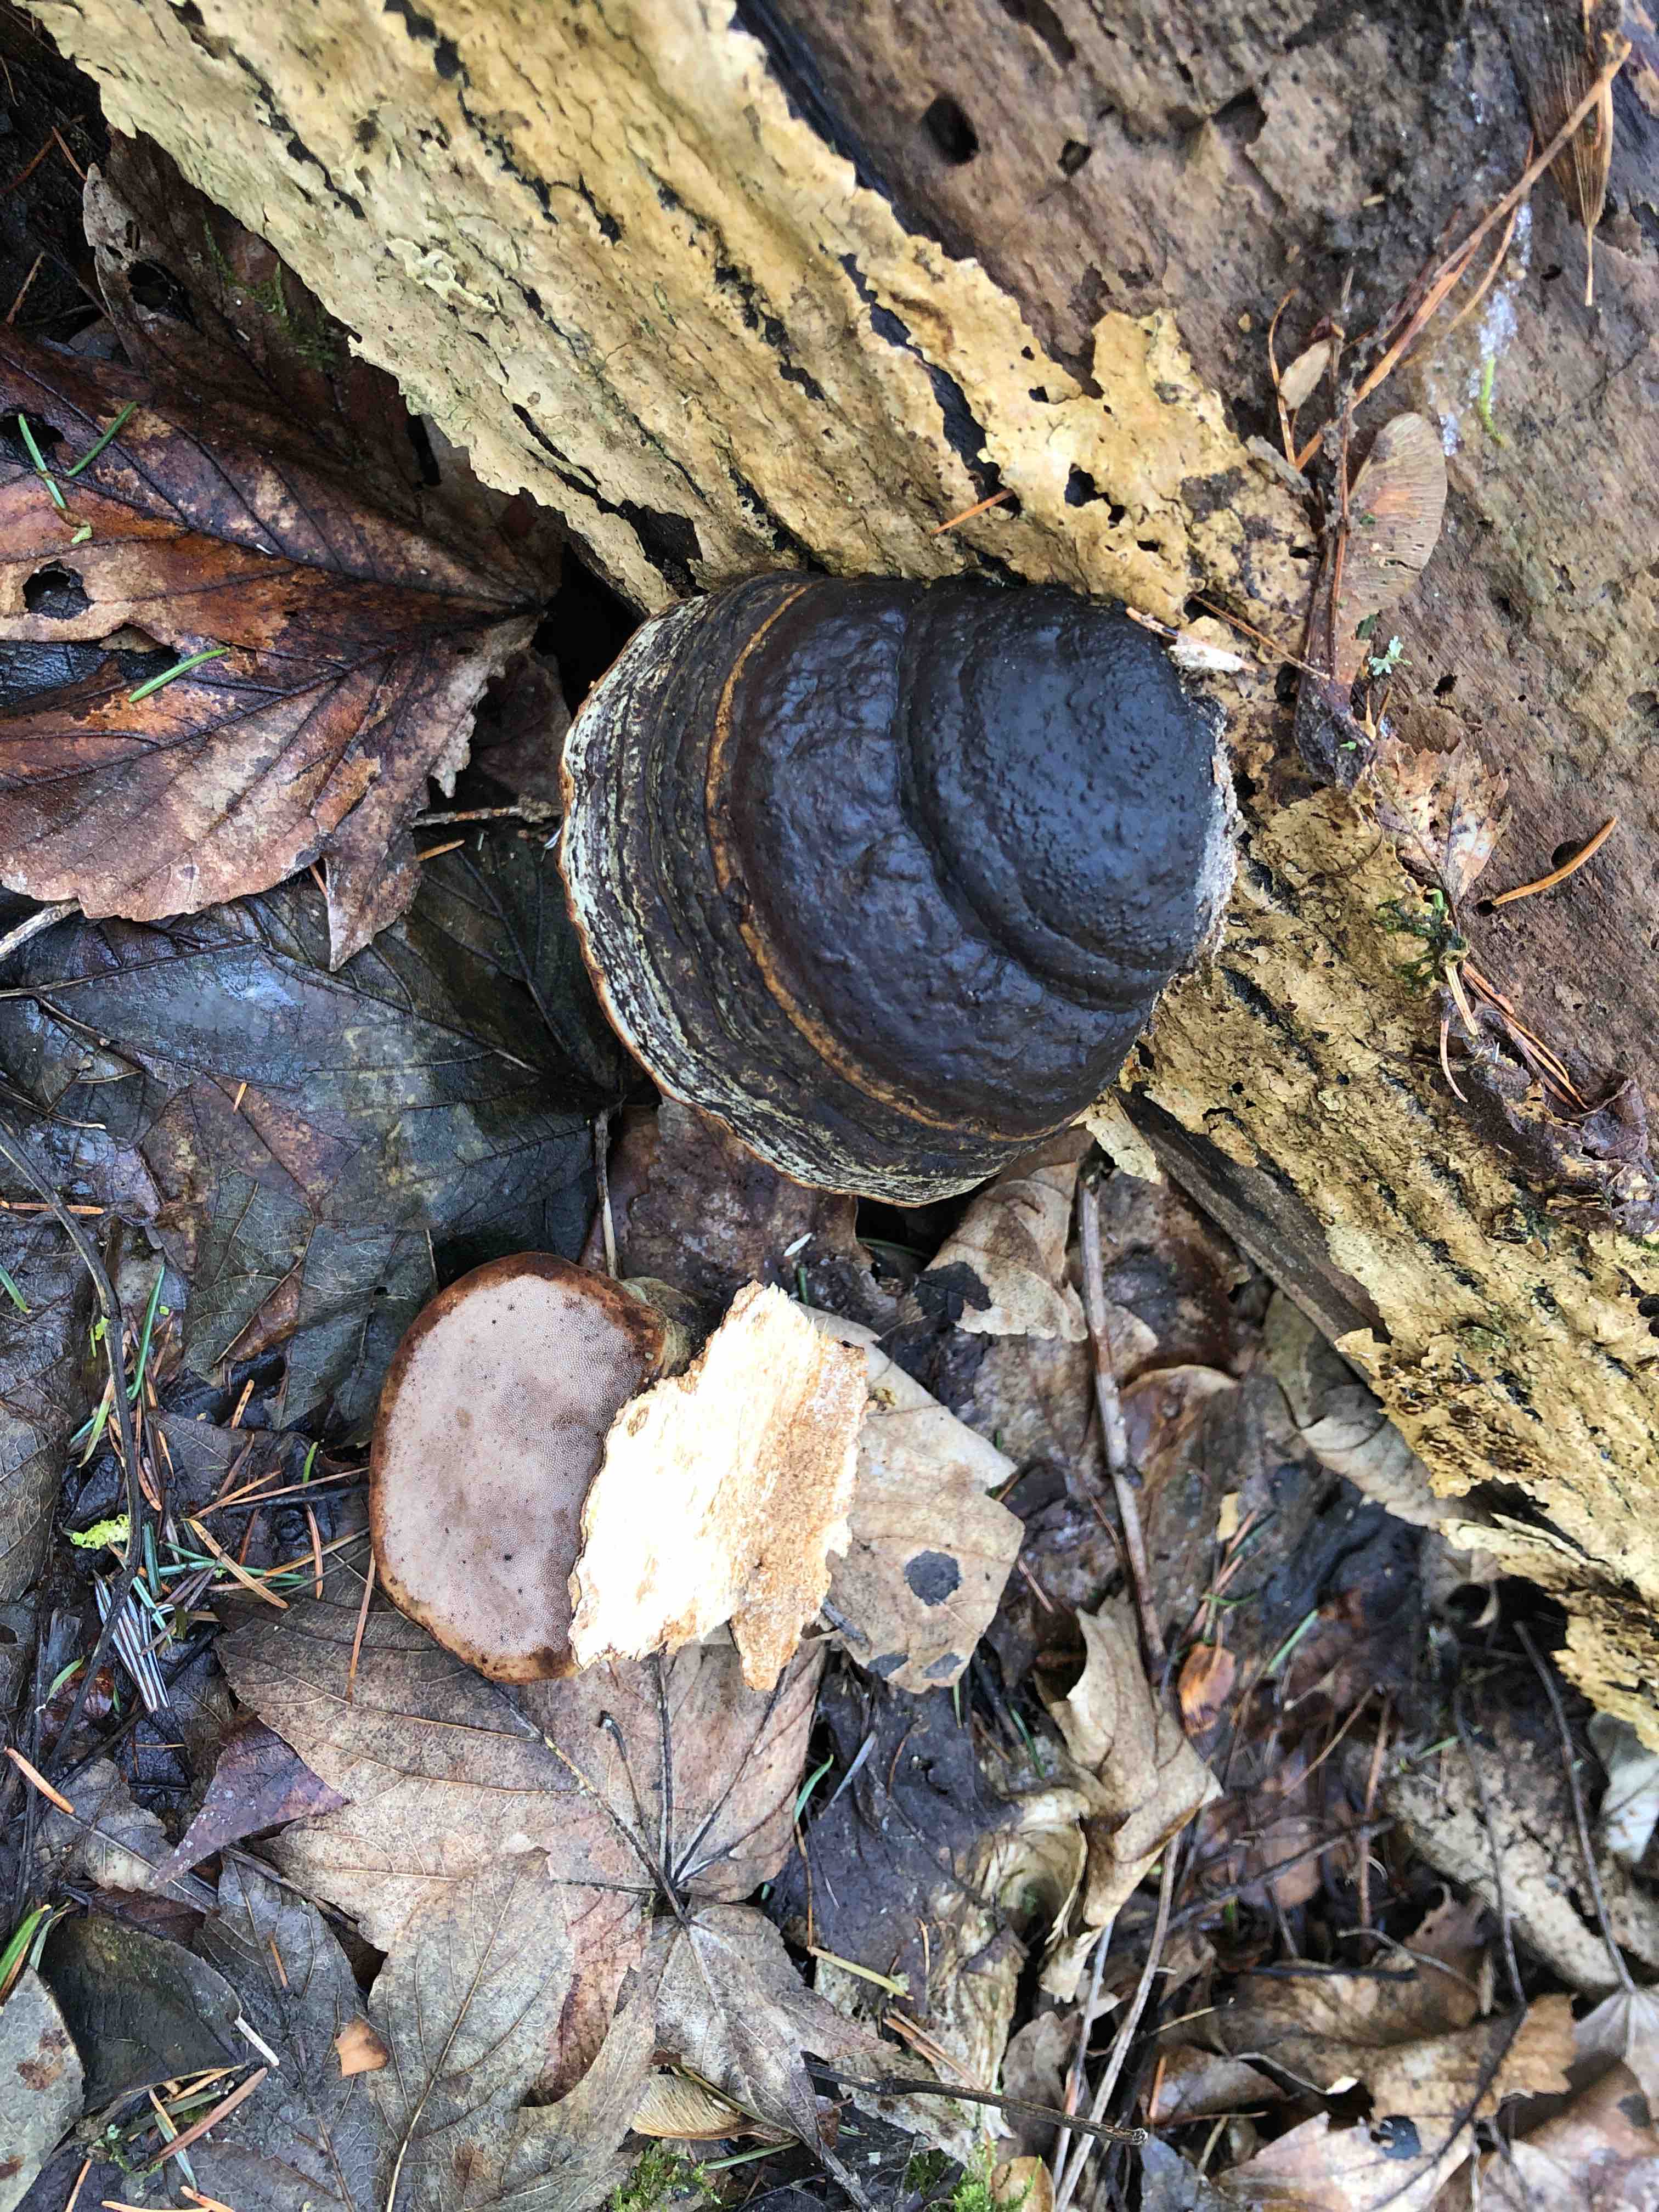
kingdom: Fungi
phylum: Basidiomycota
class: Agaricomycetes
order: Polyporales
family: Polyporaceae
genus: Fomes
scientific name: Fomes fomentarius
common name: tøndersvamp
